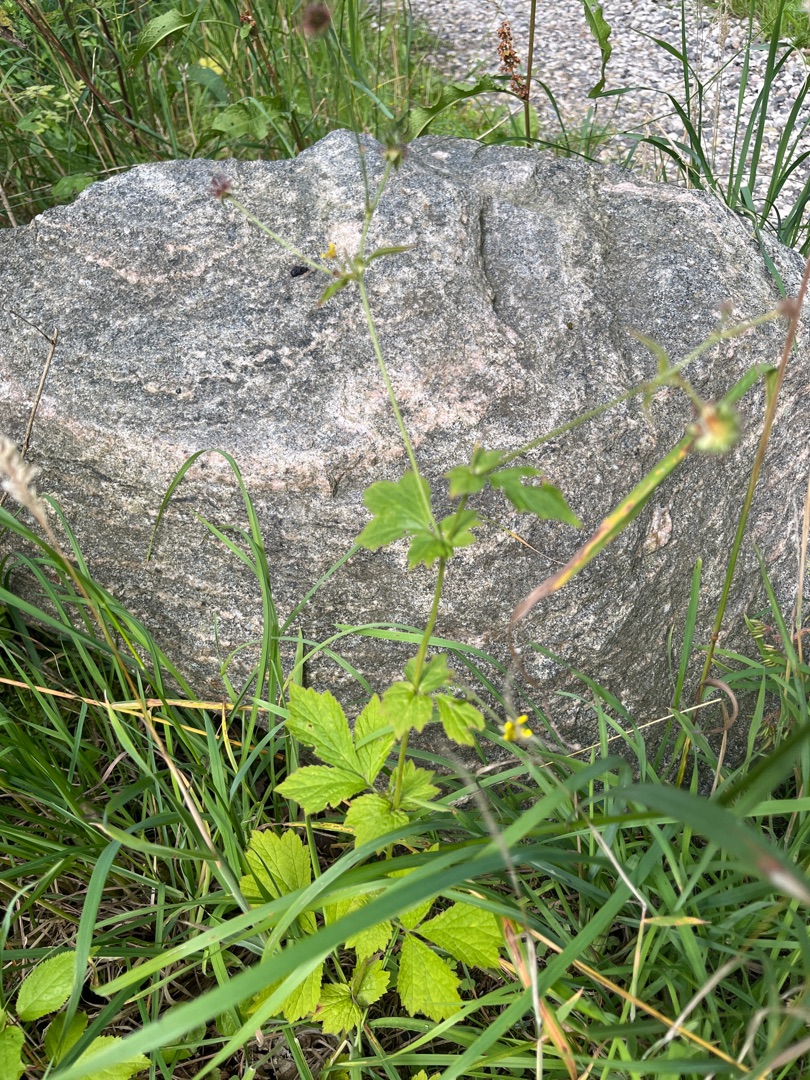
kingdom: Plantae
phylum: Tracheophyta
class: Magnoliopsida
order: Rosales
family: Rosaceae
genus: Geum
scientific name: Geum urbanum
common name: Feber-nellikerod
